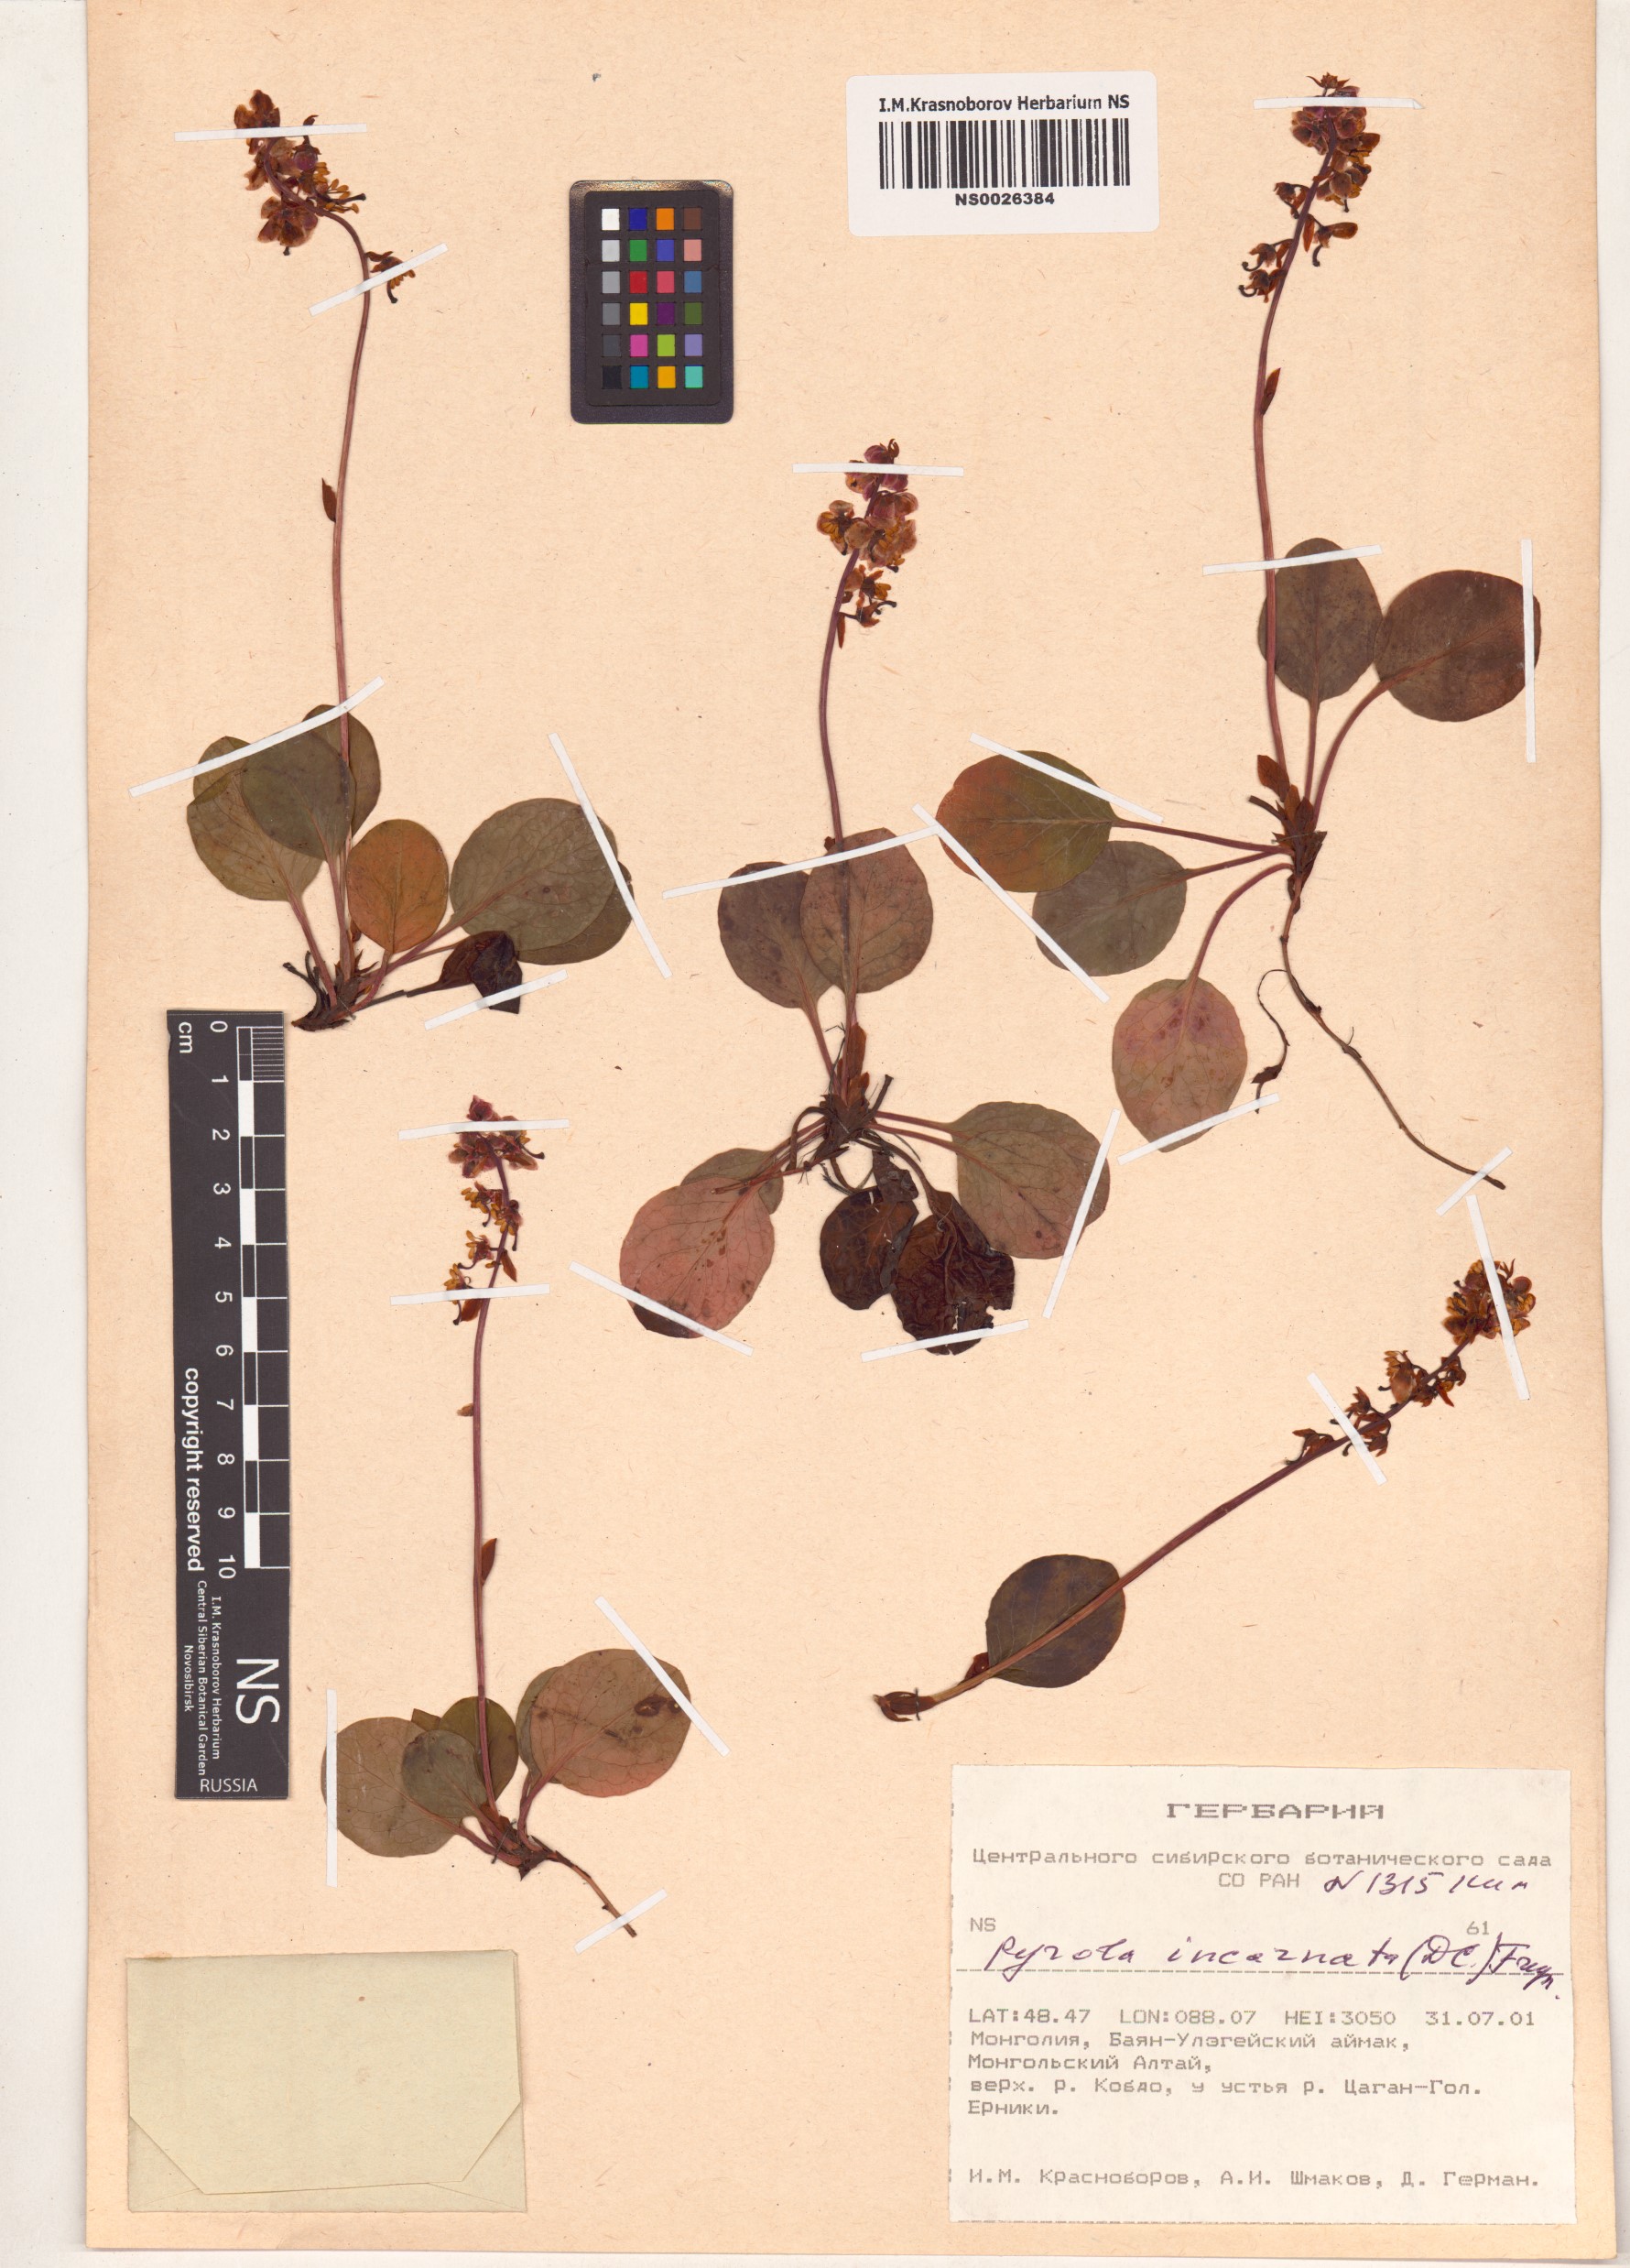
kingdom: Plantae
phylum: Tracheophyta
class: Magnoliopsida
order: Ericales
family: Ericaceae
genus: Pyrola
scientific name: Pyrola asarifolia
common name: Bog wintergreen
